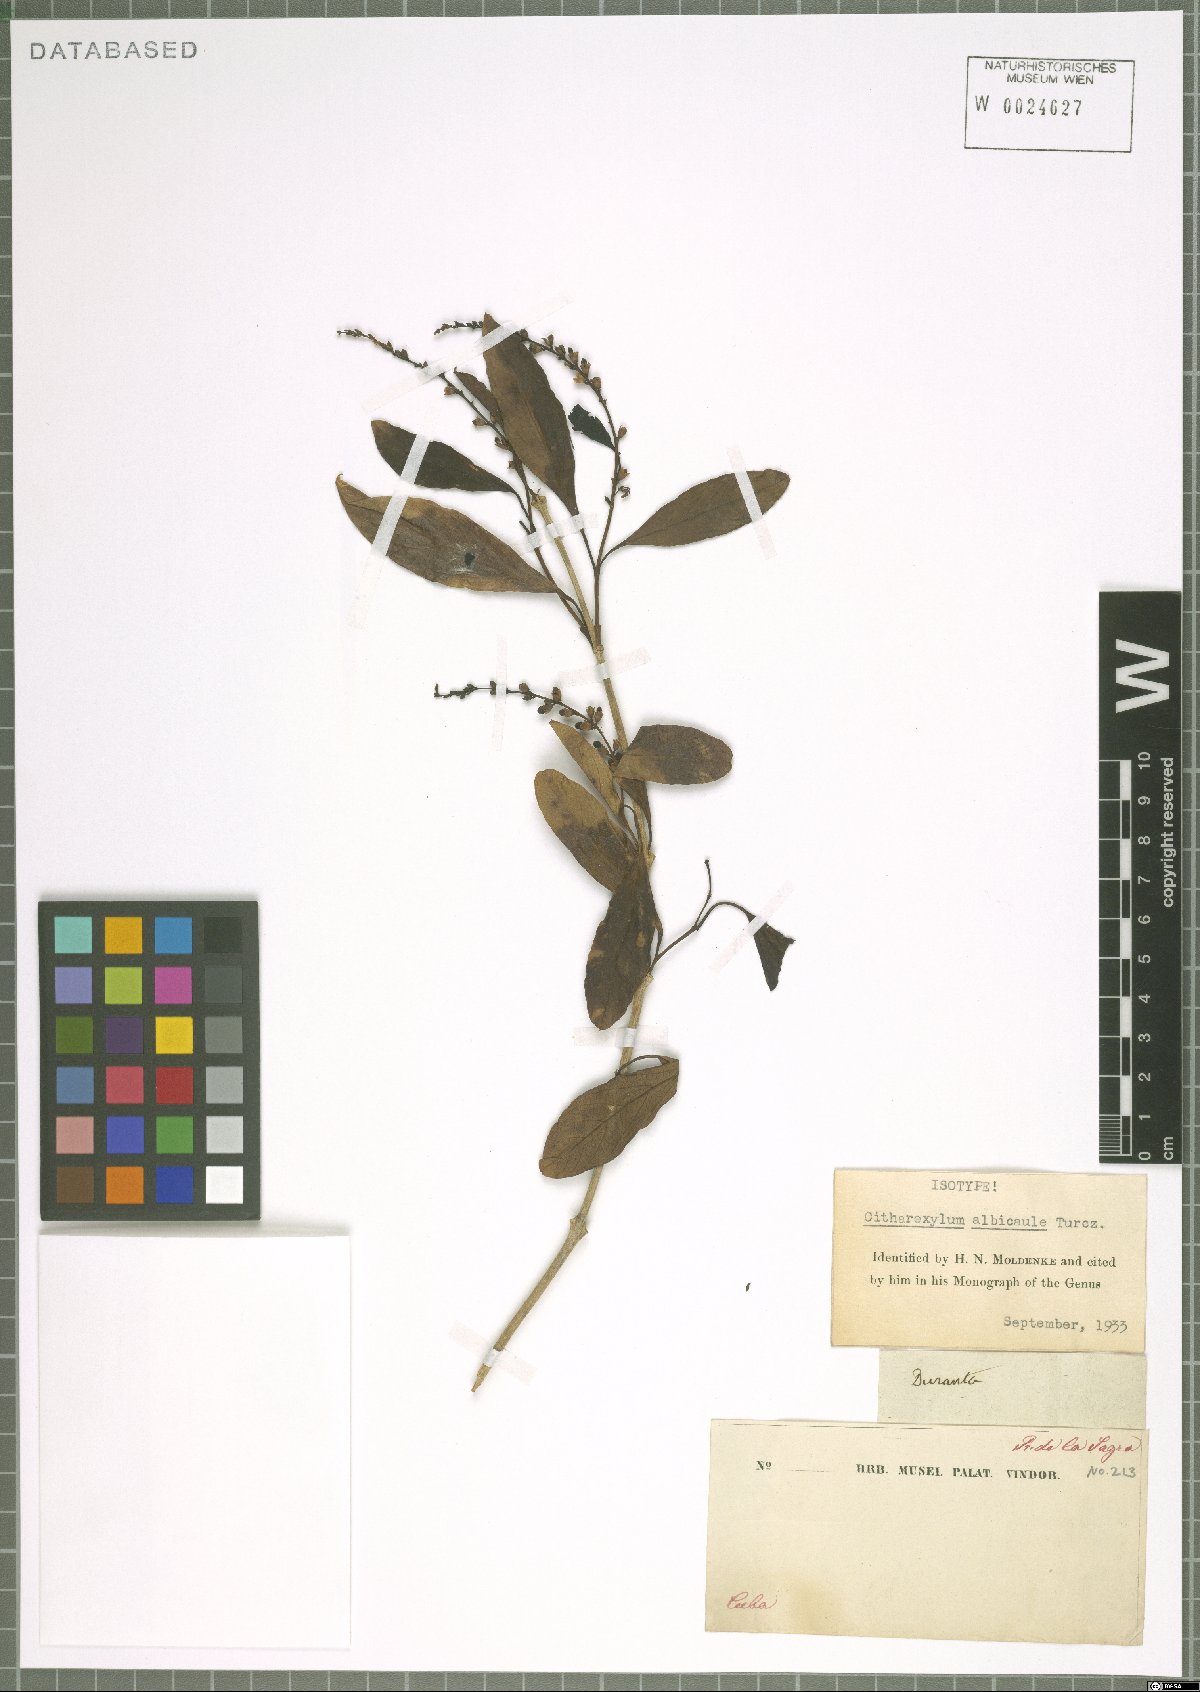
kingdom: Plantae
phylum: Tracheophyta
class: Magnoliopsida
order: Lamiales
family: Verbenaceae
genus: Citharexylum
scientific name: Citharexylum spinosum
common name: Fiddlewood
